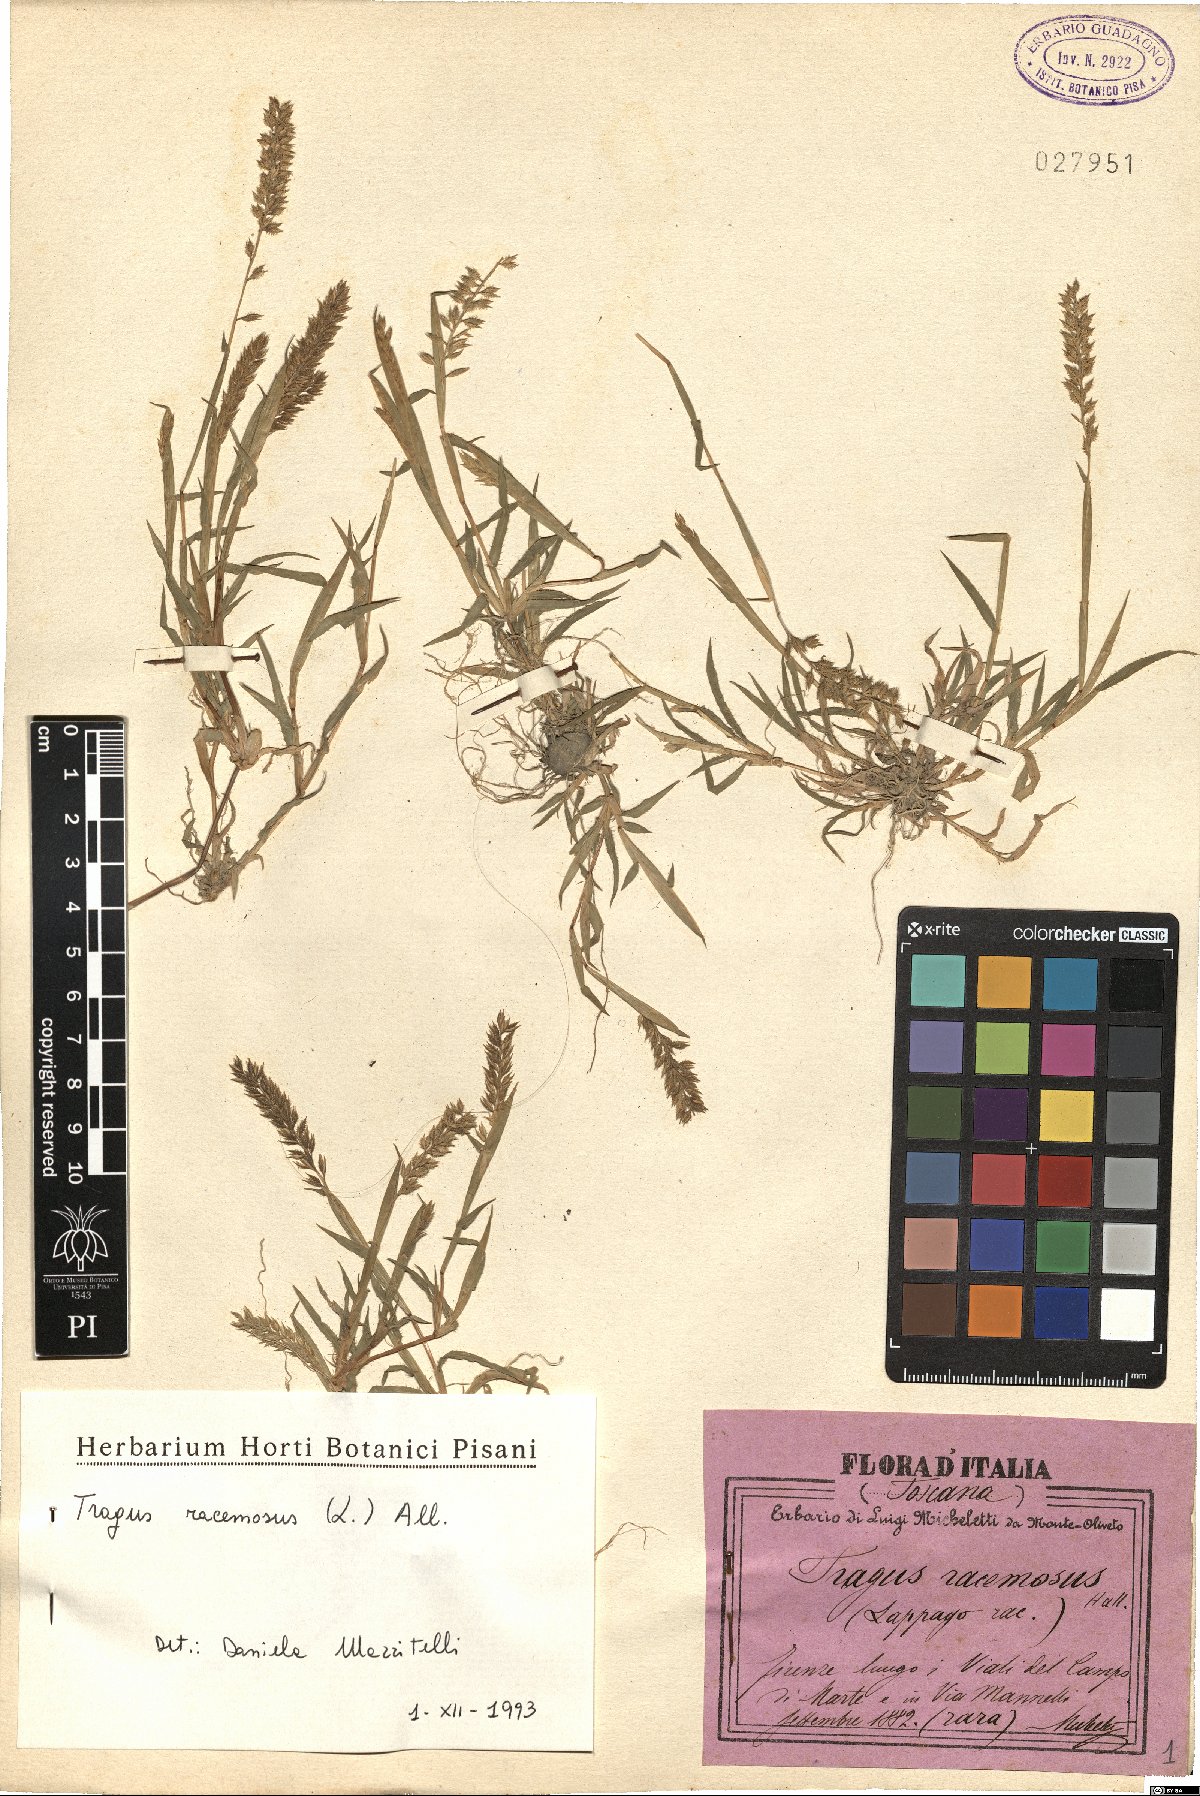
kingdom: Plantae
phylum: Tracheophyta
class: Liliopsida
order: Poales
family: Poaceae
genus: Tragus
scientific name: Tragus racemosus
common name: European bur-grass
